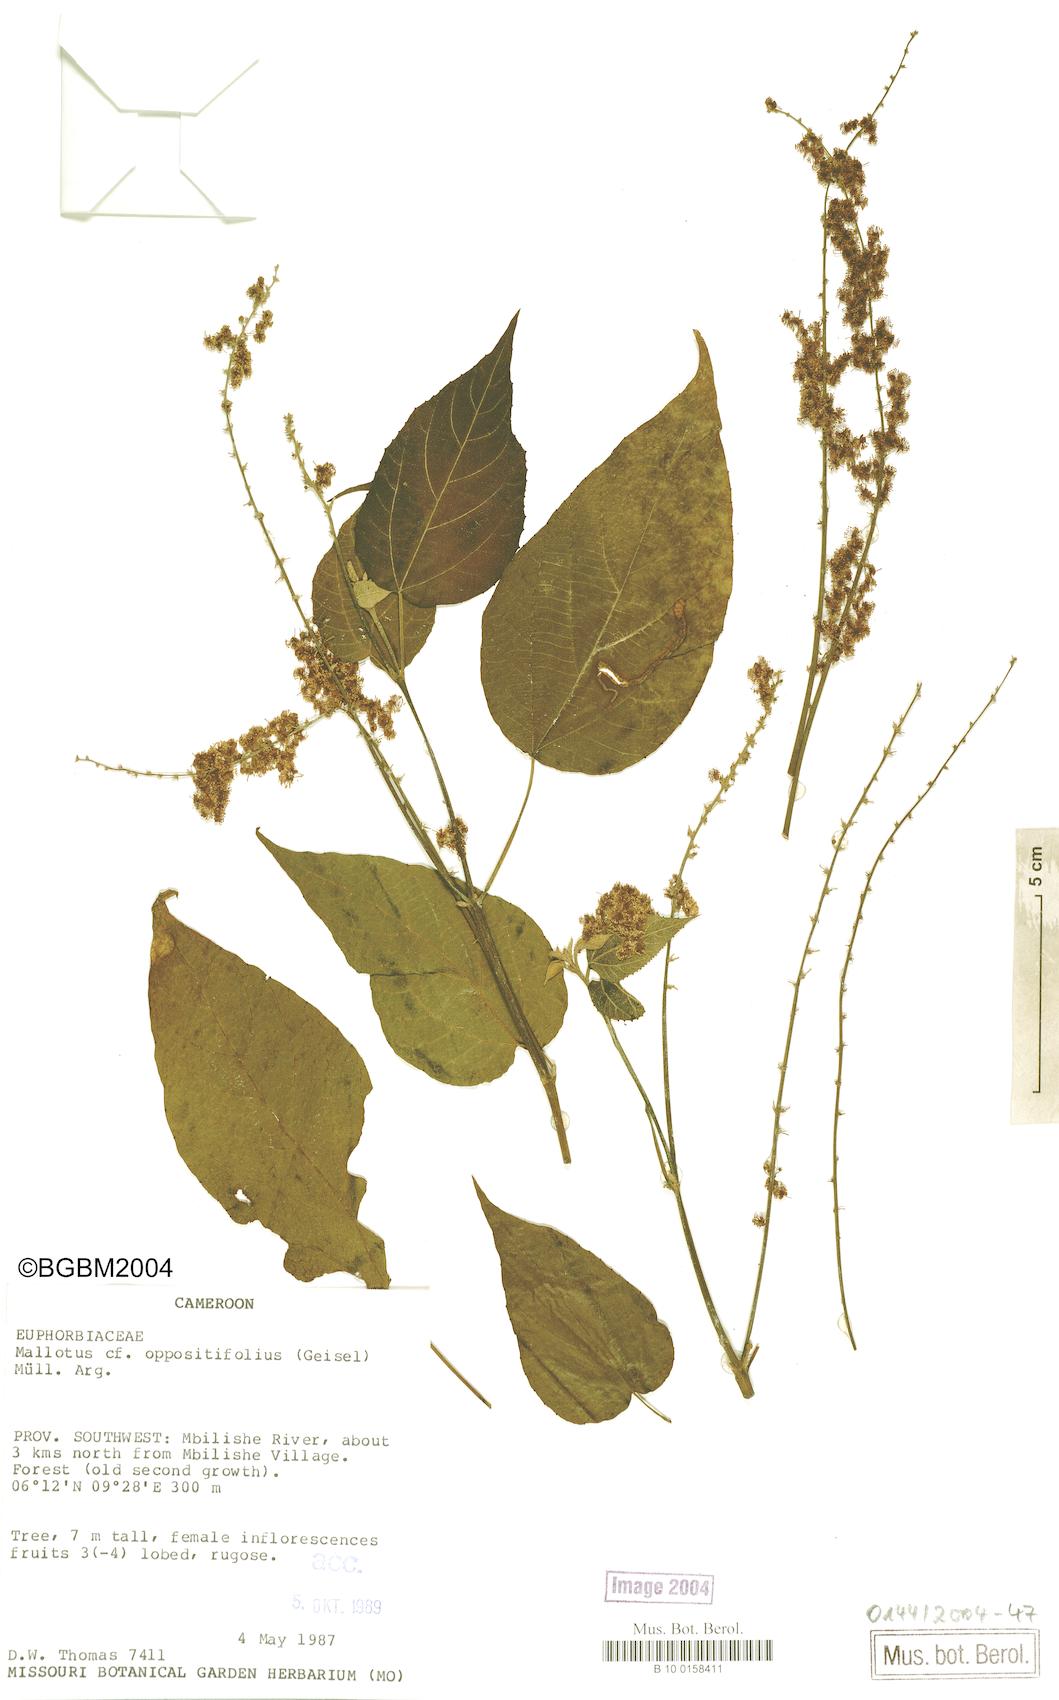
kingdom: Plantae
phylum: Tracheophyta
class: Magnoliopsida
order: Malpighiales
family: Euphorbiaceae
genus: Mallotus
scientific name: Mallotus oppositifolius
